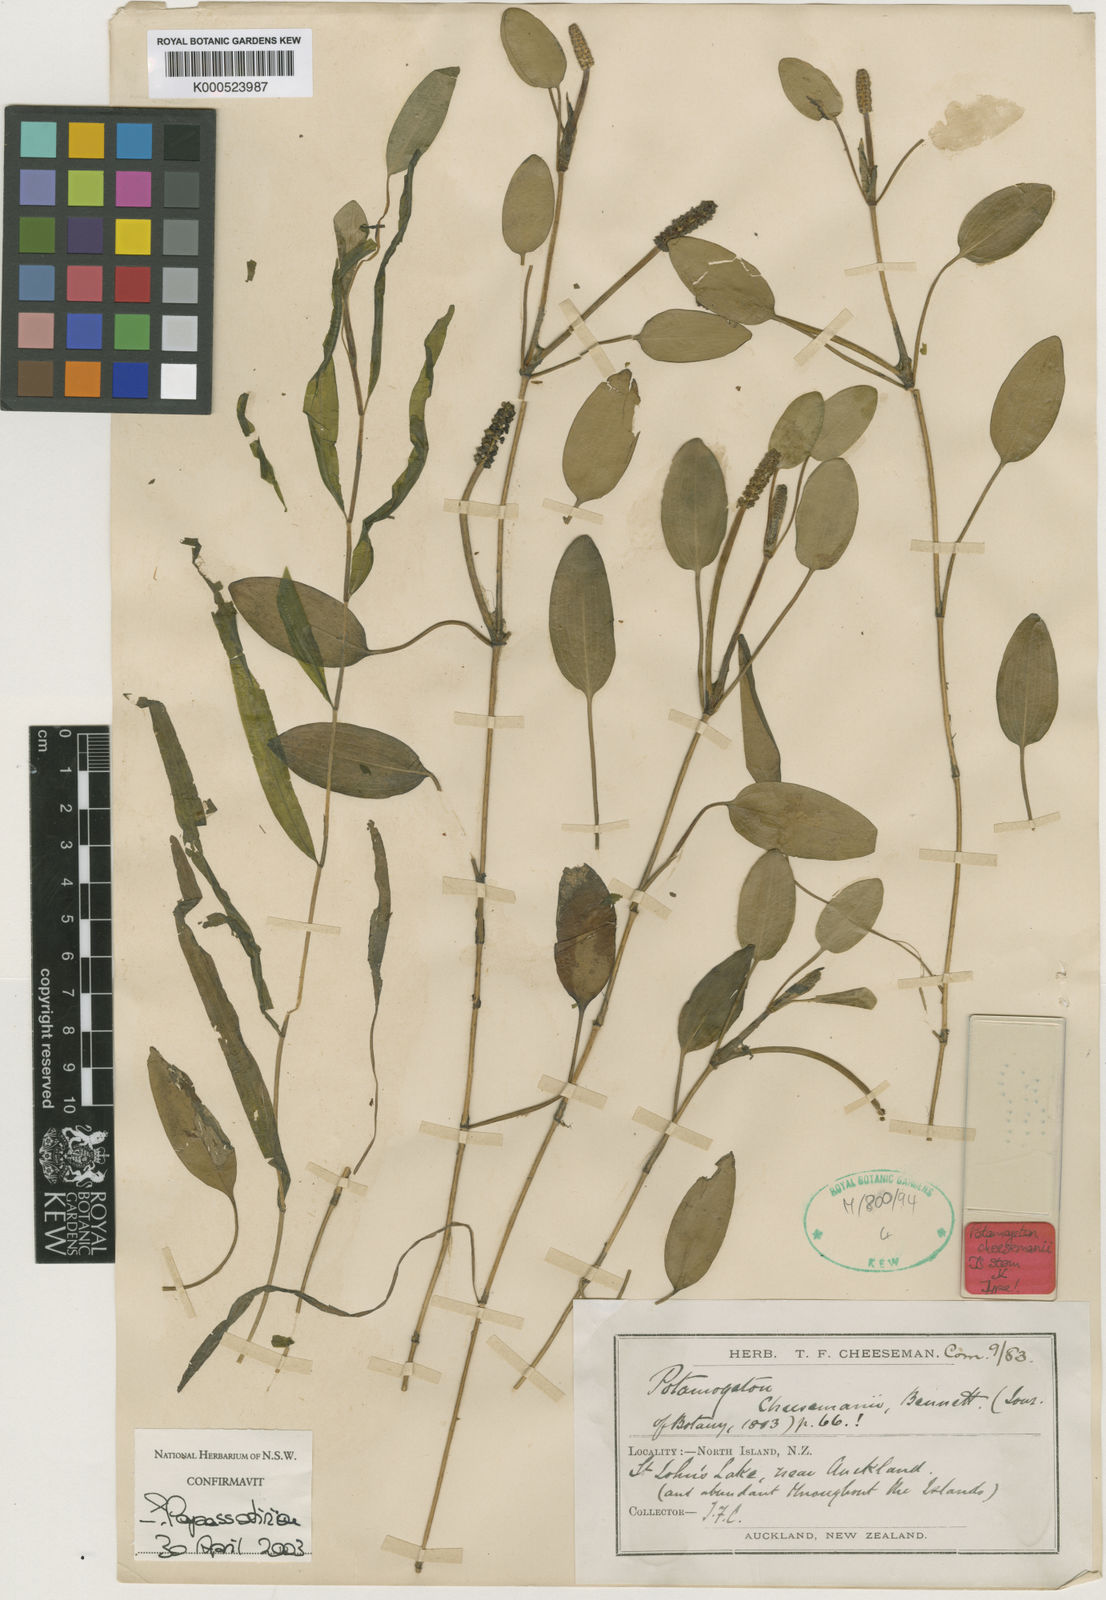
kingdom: Plantae
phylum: Tracheophyta
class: Liliopsida
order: Alismatales
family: Potamogetonaceae
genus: Potamogeton
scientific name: Potamogeton cheesemanii
